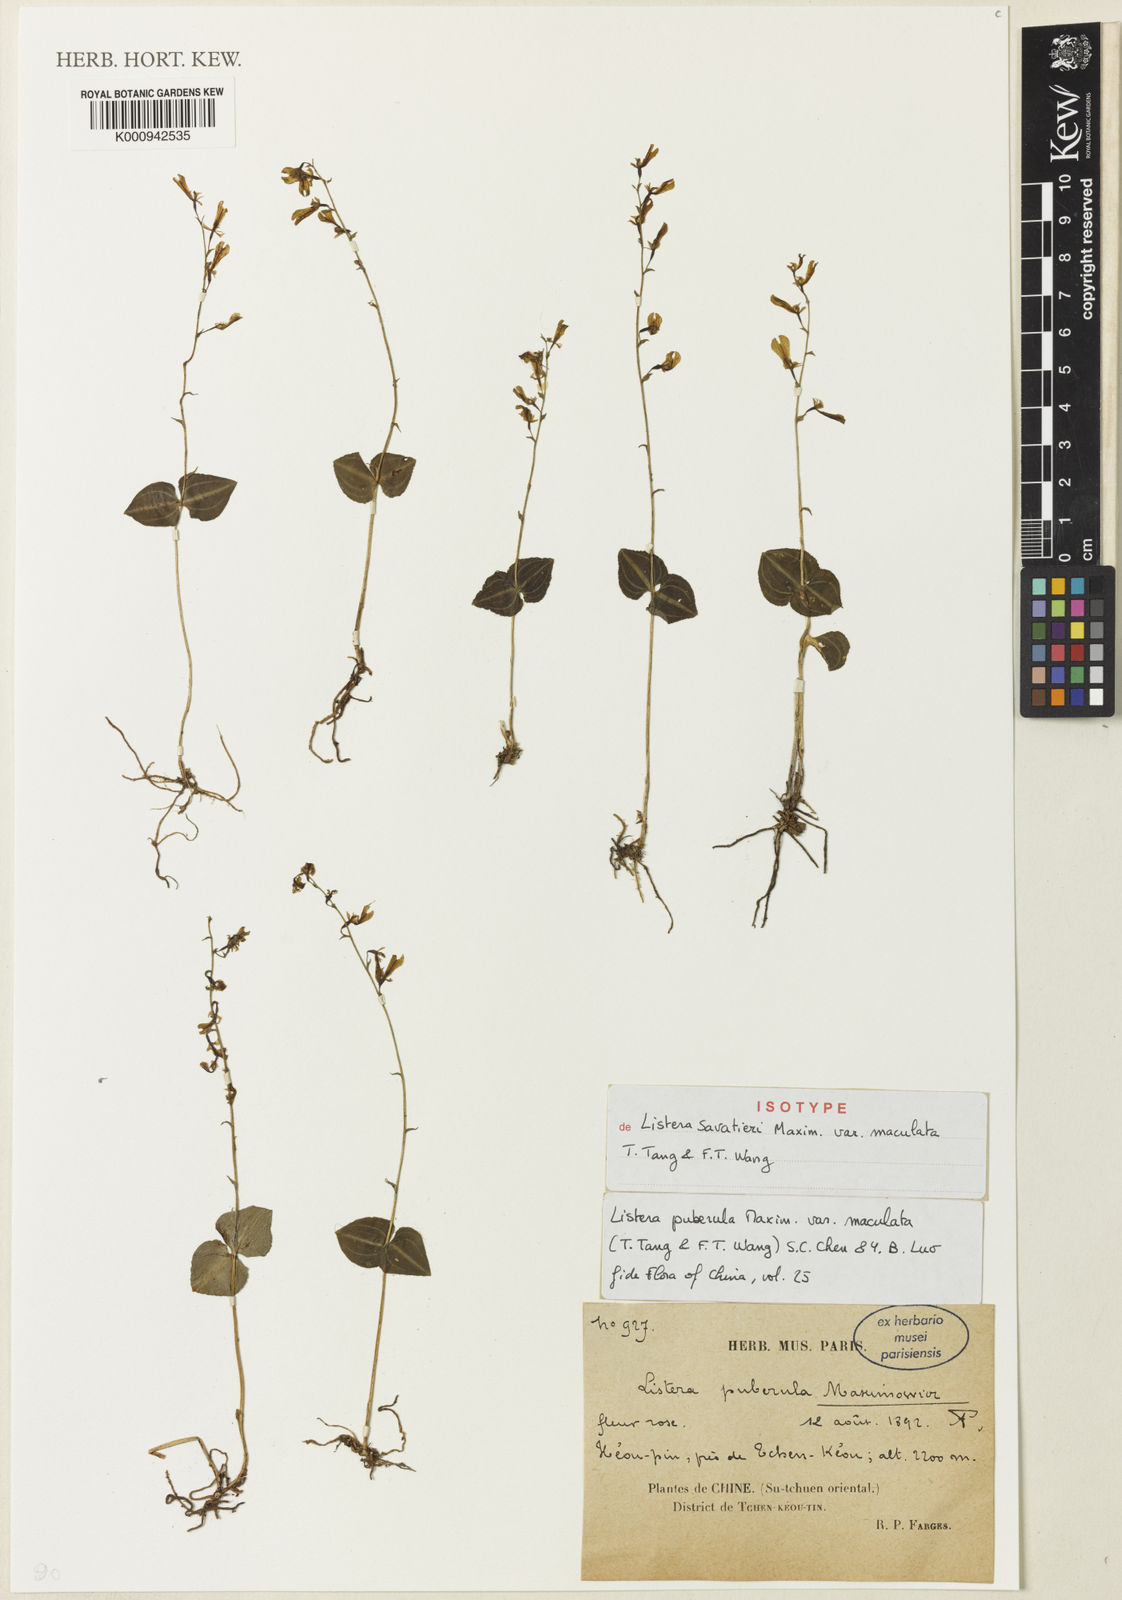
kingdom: Plantae
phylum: Tracheophyta
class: Liliopsida
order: Asparagales
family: Orchidaceae
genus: Neottia
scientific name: Neottia puberula
